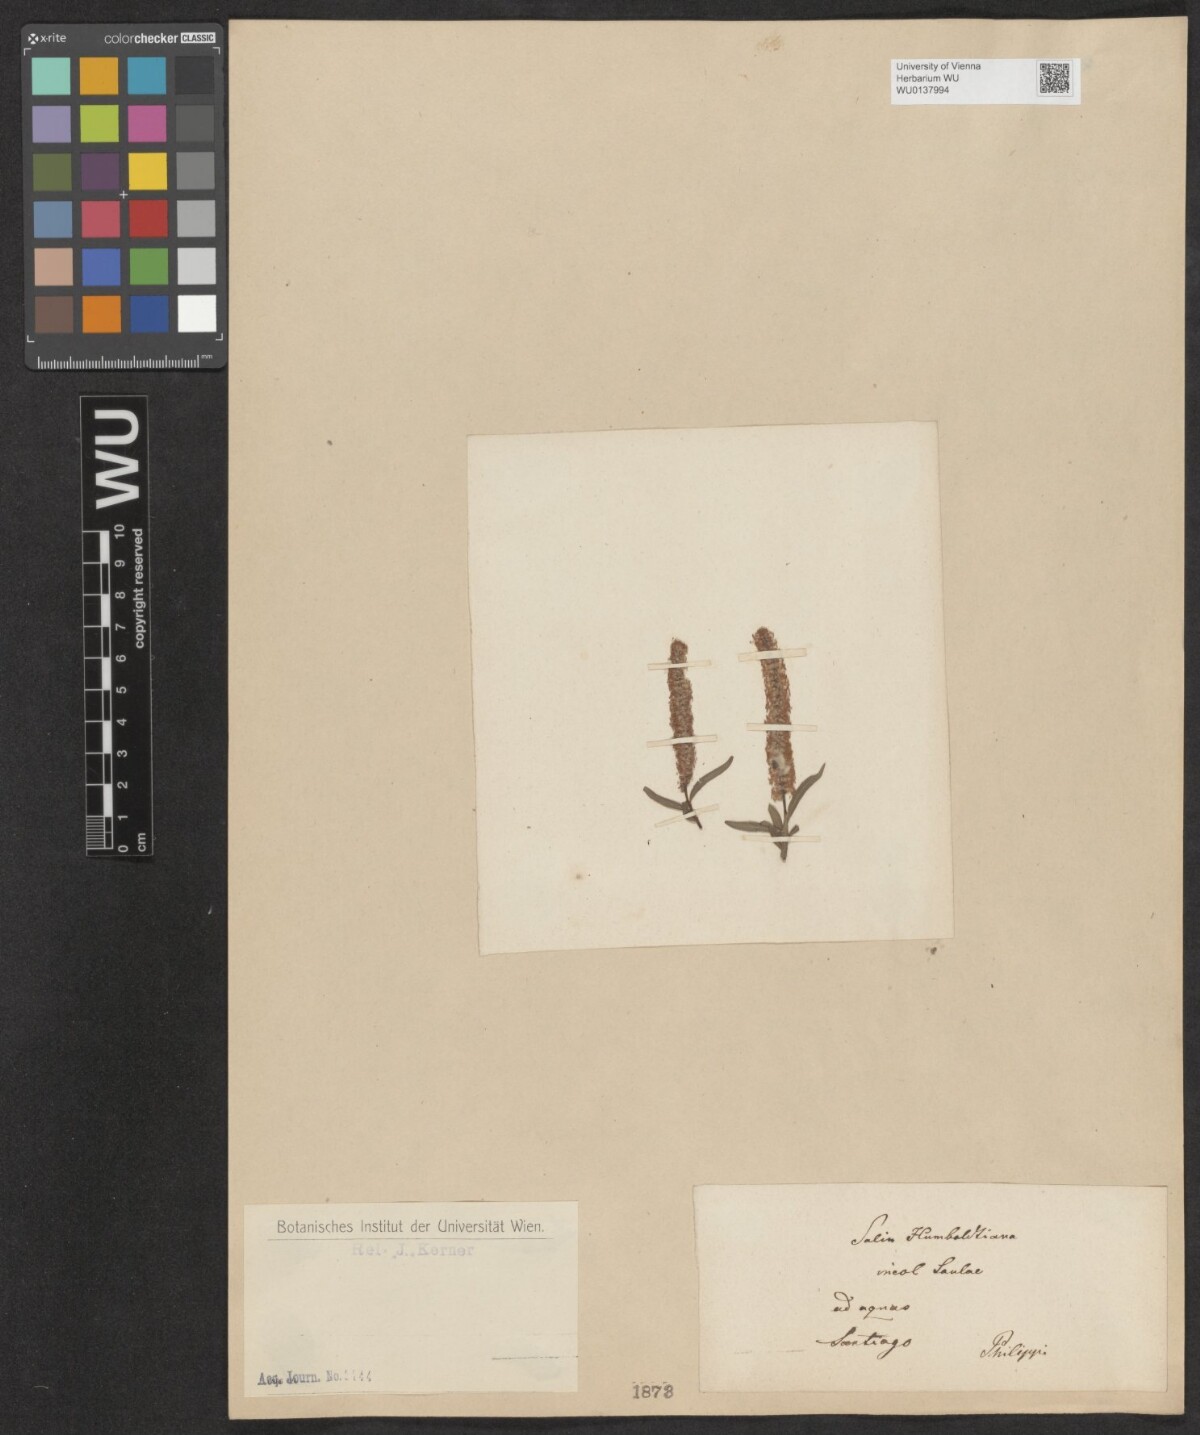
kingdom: Plantae
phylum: Tracheophyta
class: Magnoliopsida
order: Malpighiales
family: Salicaceae
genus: Salix
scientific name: Salix humboldtiana
